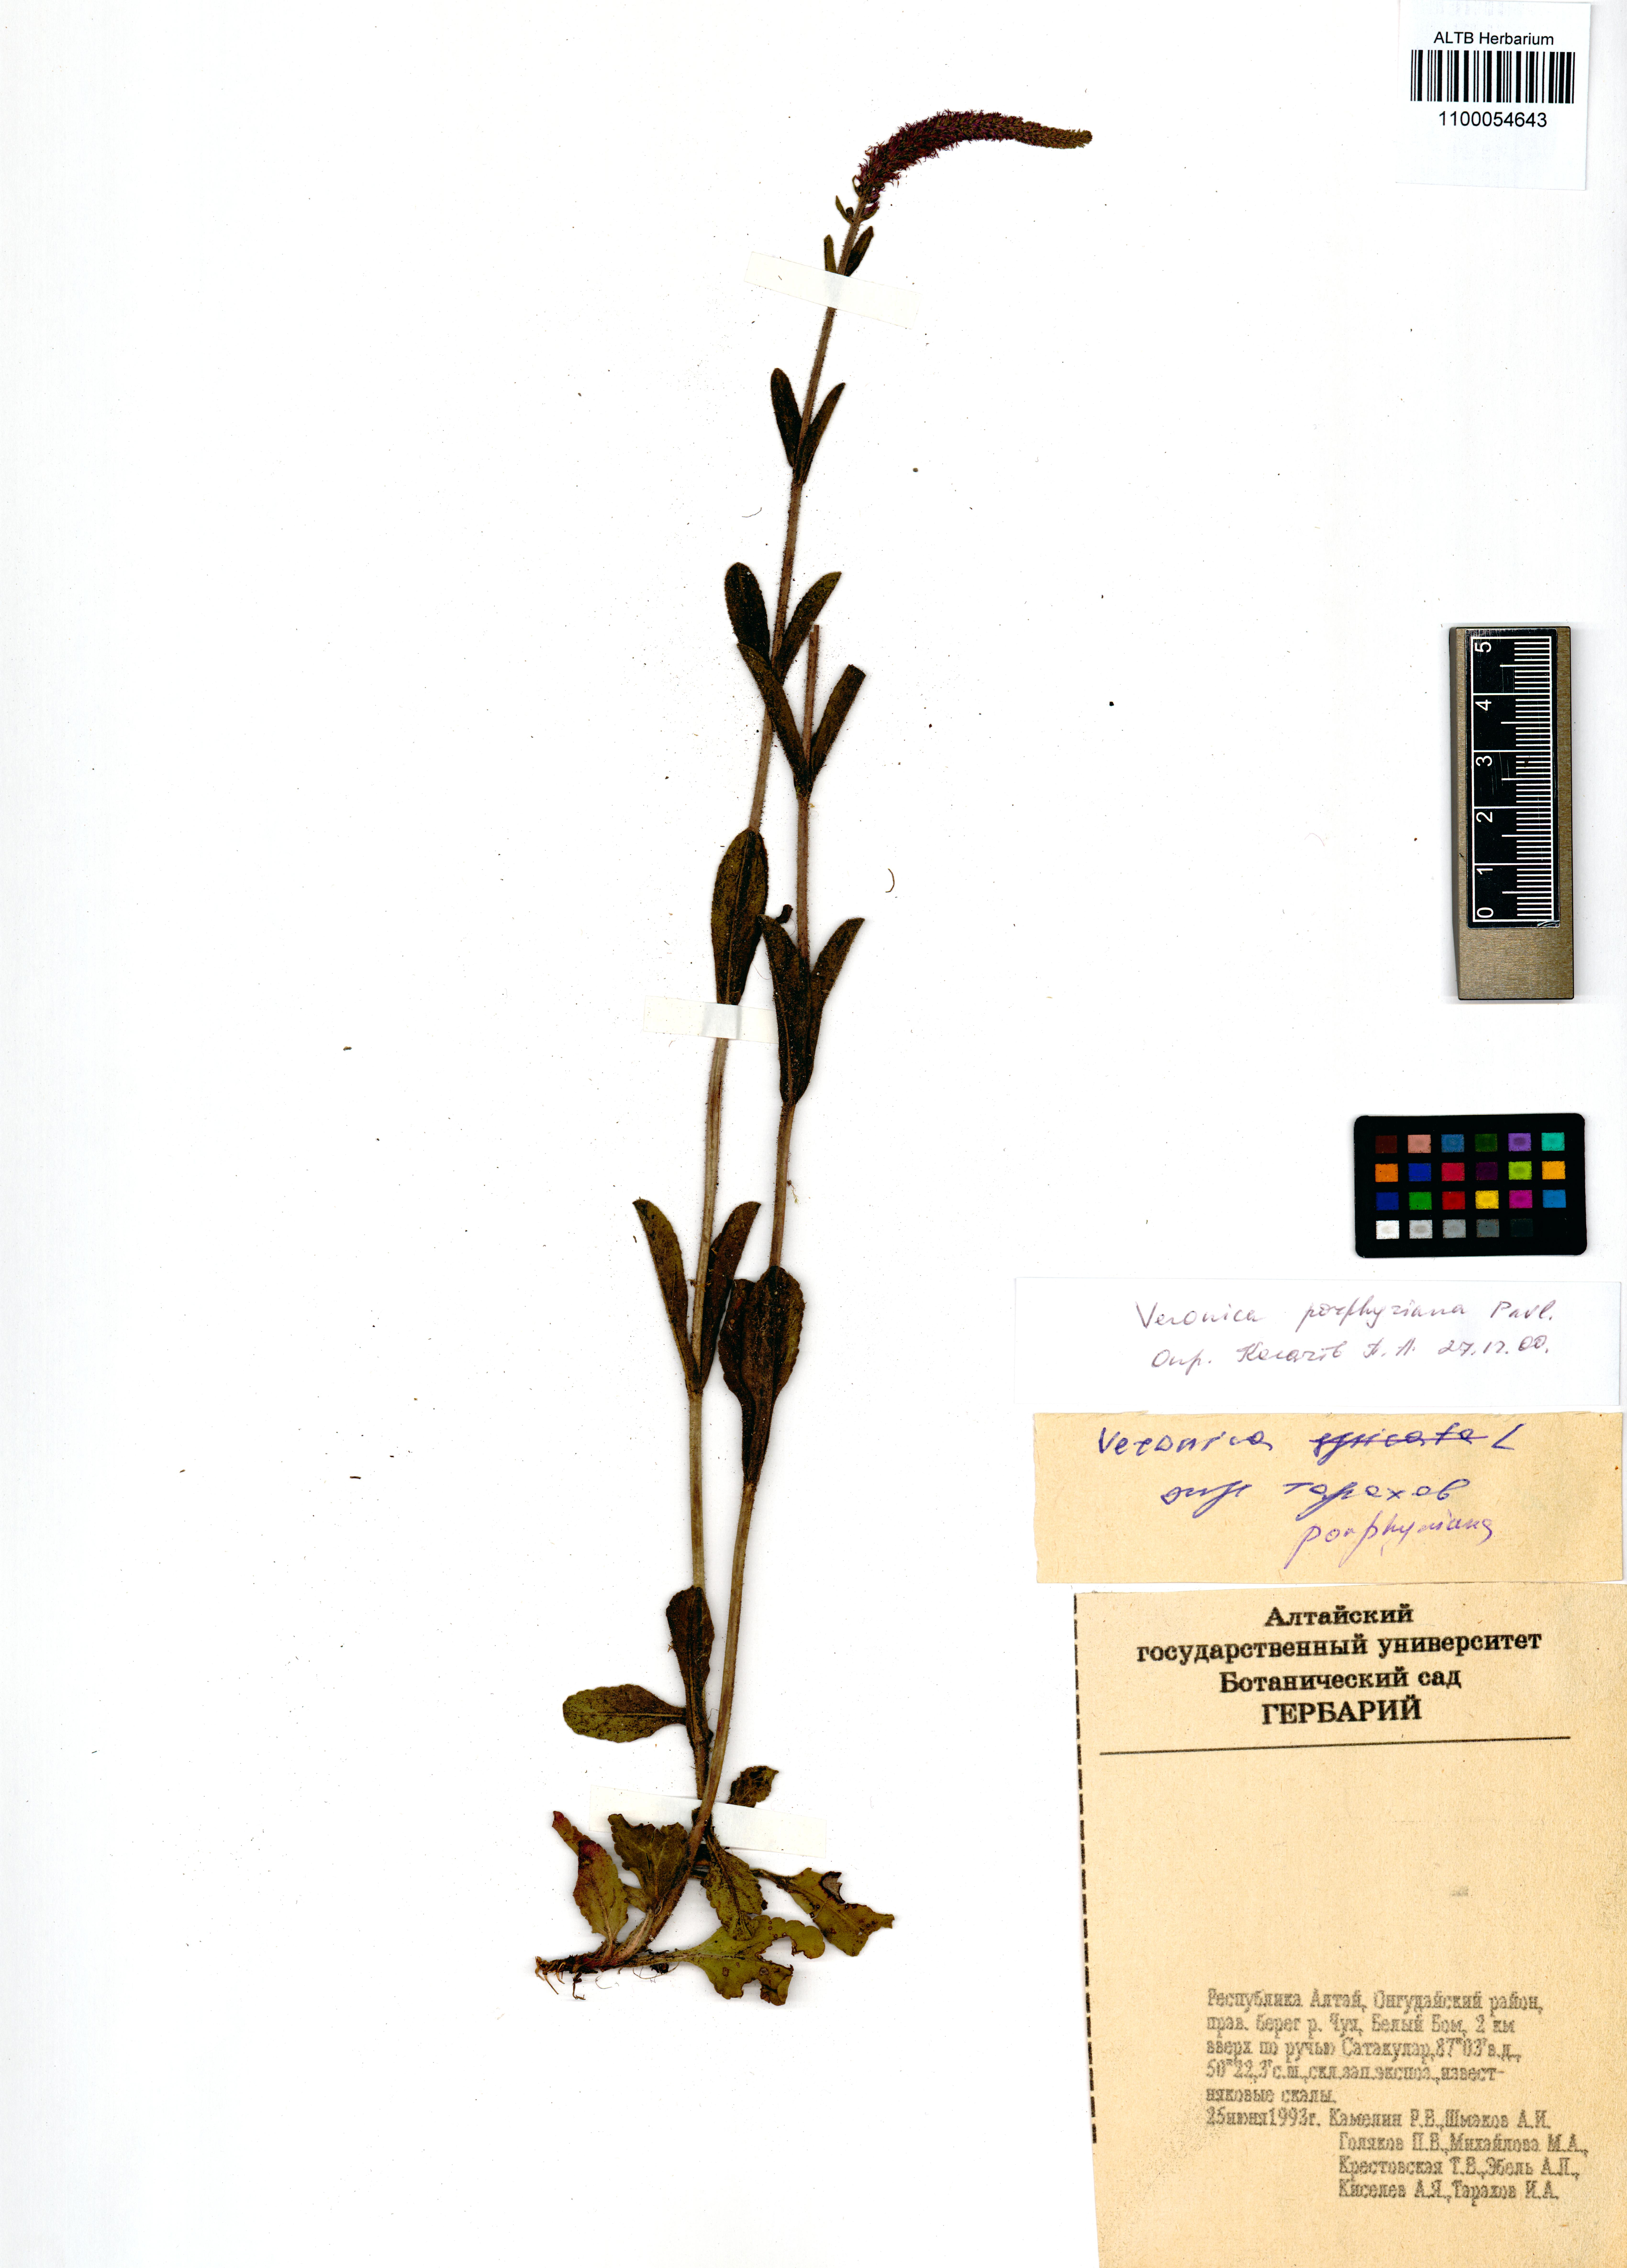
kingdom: Plantae
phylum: Tracheophyta
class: Magnoliopsida
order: Lamiales
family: Plantaginaceae
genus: Veronica
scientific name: Veronica porphyriana
